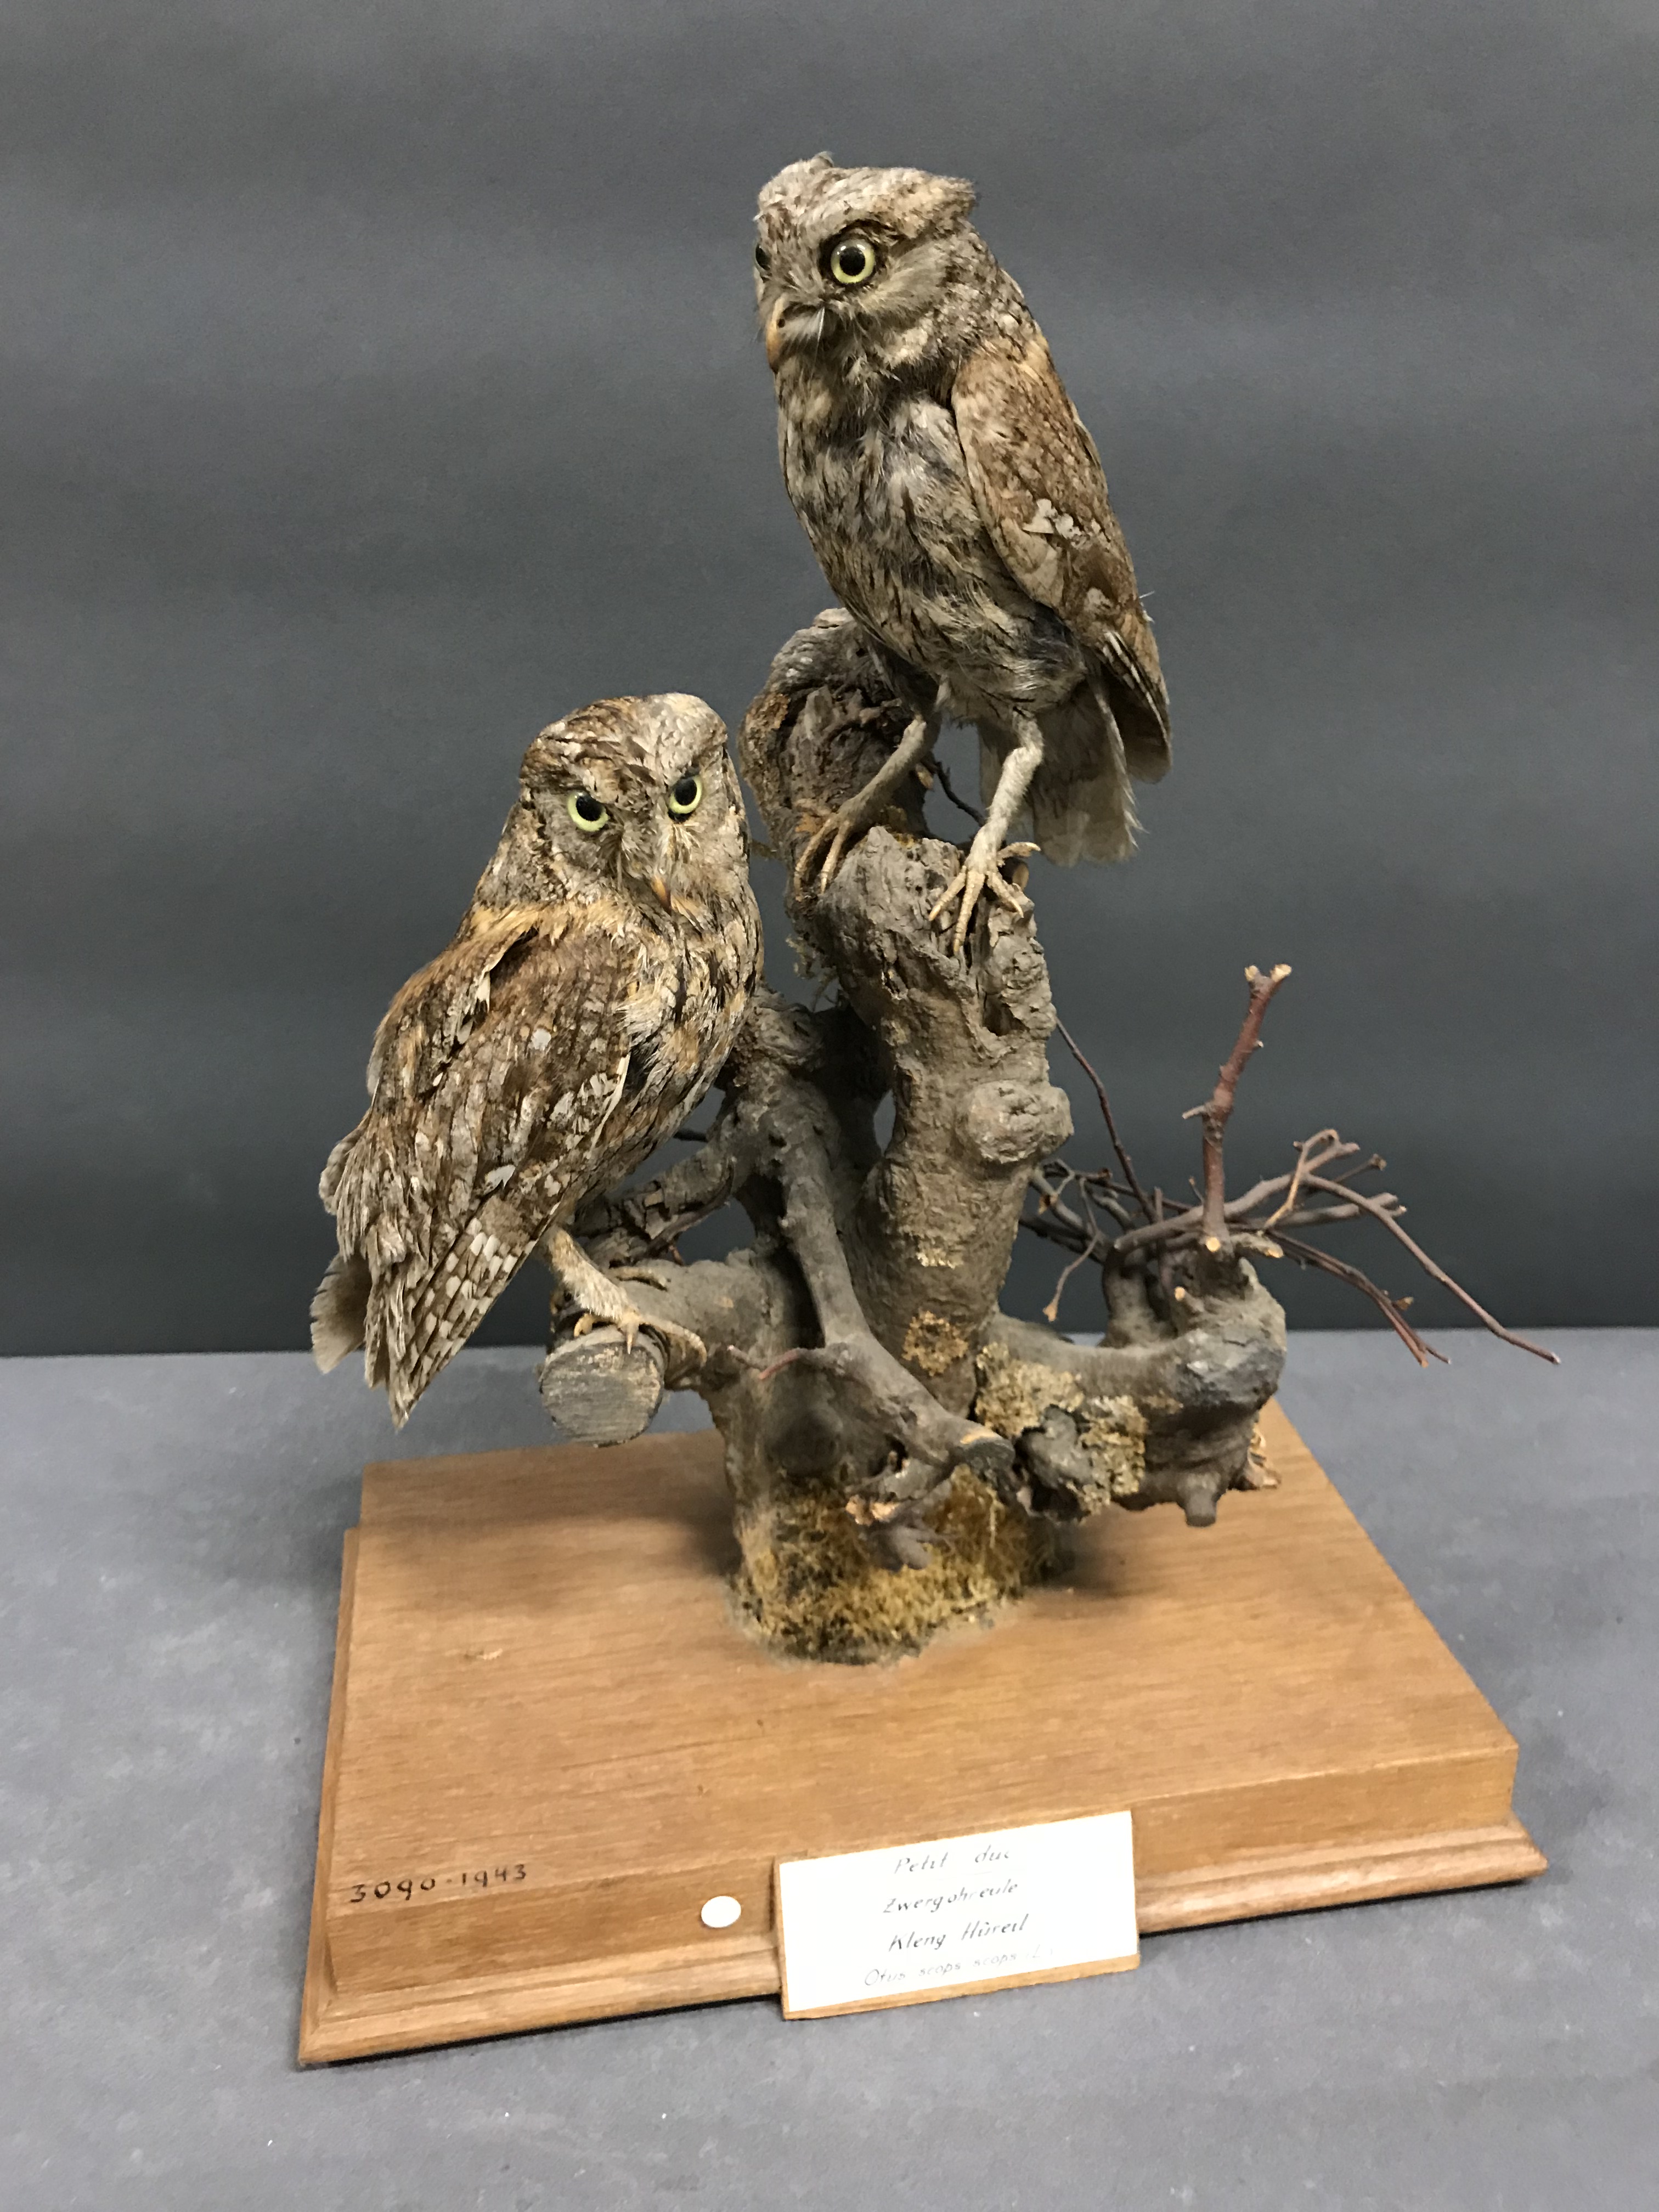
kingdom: Animalia
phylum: Chordata
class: Aves
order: Strigiformes
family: Strigidae
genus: Otus
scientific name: Otus scops
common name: Eurasian scops owl
